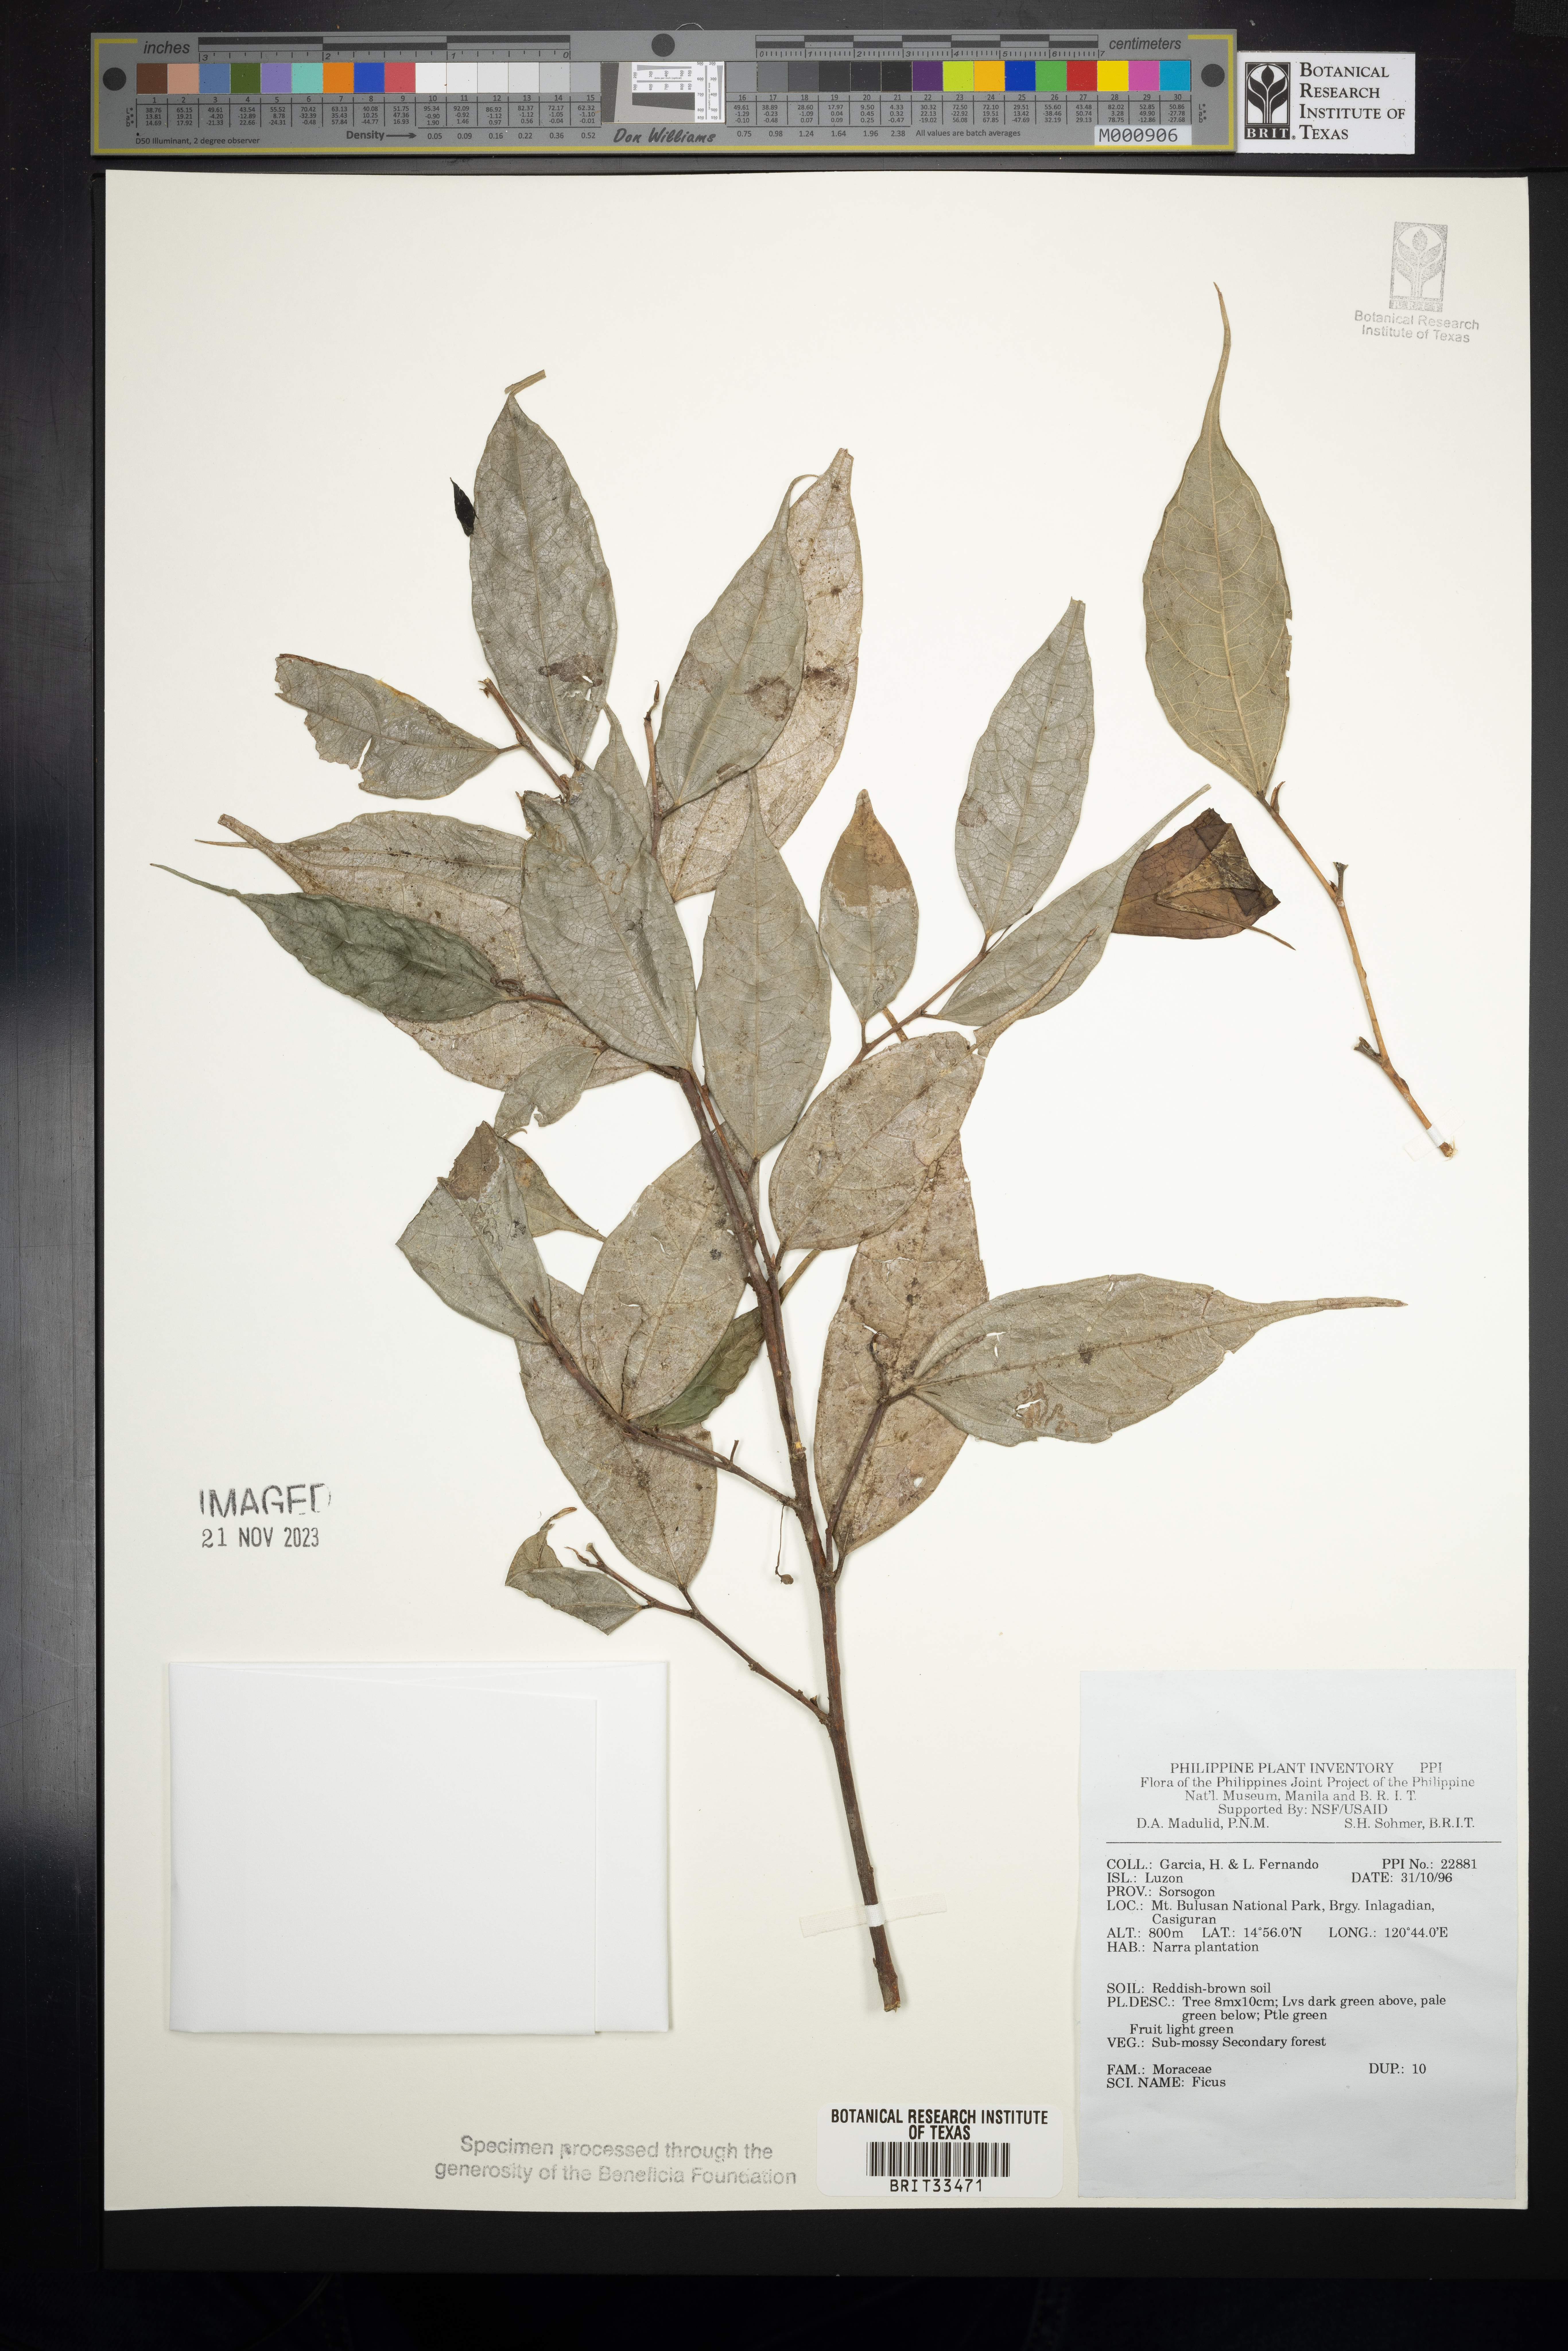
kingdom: Plantae
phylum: Tracheophyta
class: Magnoliopsida
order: Rosales
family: Moraceae
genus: Ficus
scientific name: Ficus
